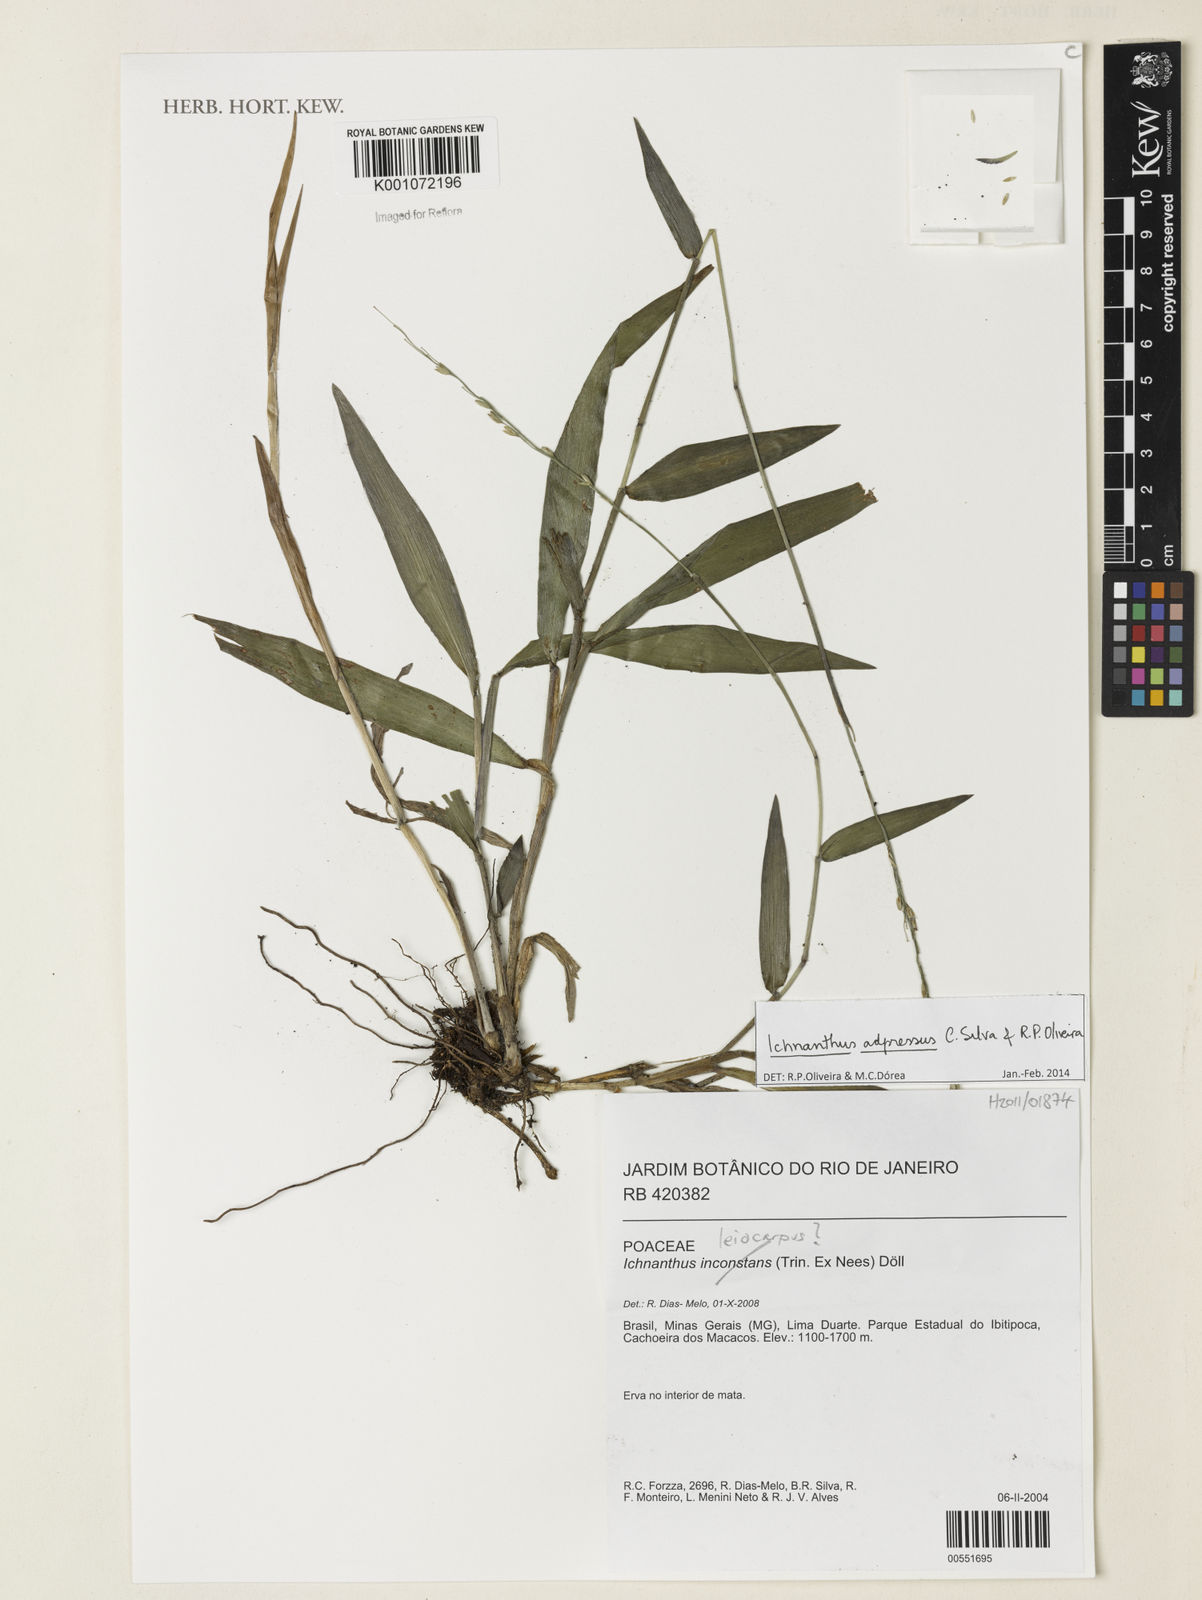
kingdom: Plantae
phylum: Tracheophyta
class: Liliopsida
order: Poales
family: Poaceae
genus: Ichnanthus
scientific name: Ichnanthus adpressus
